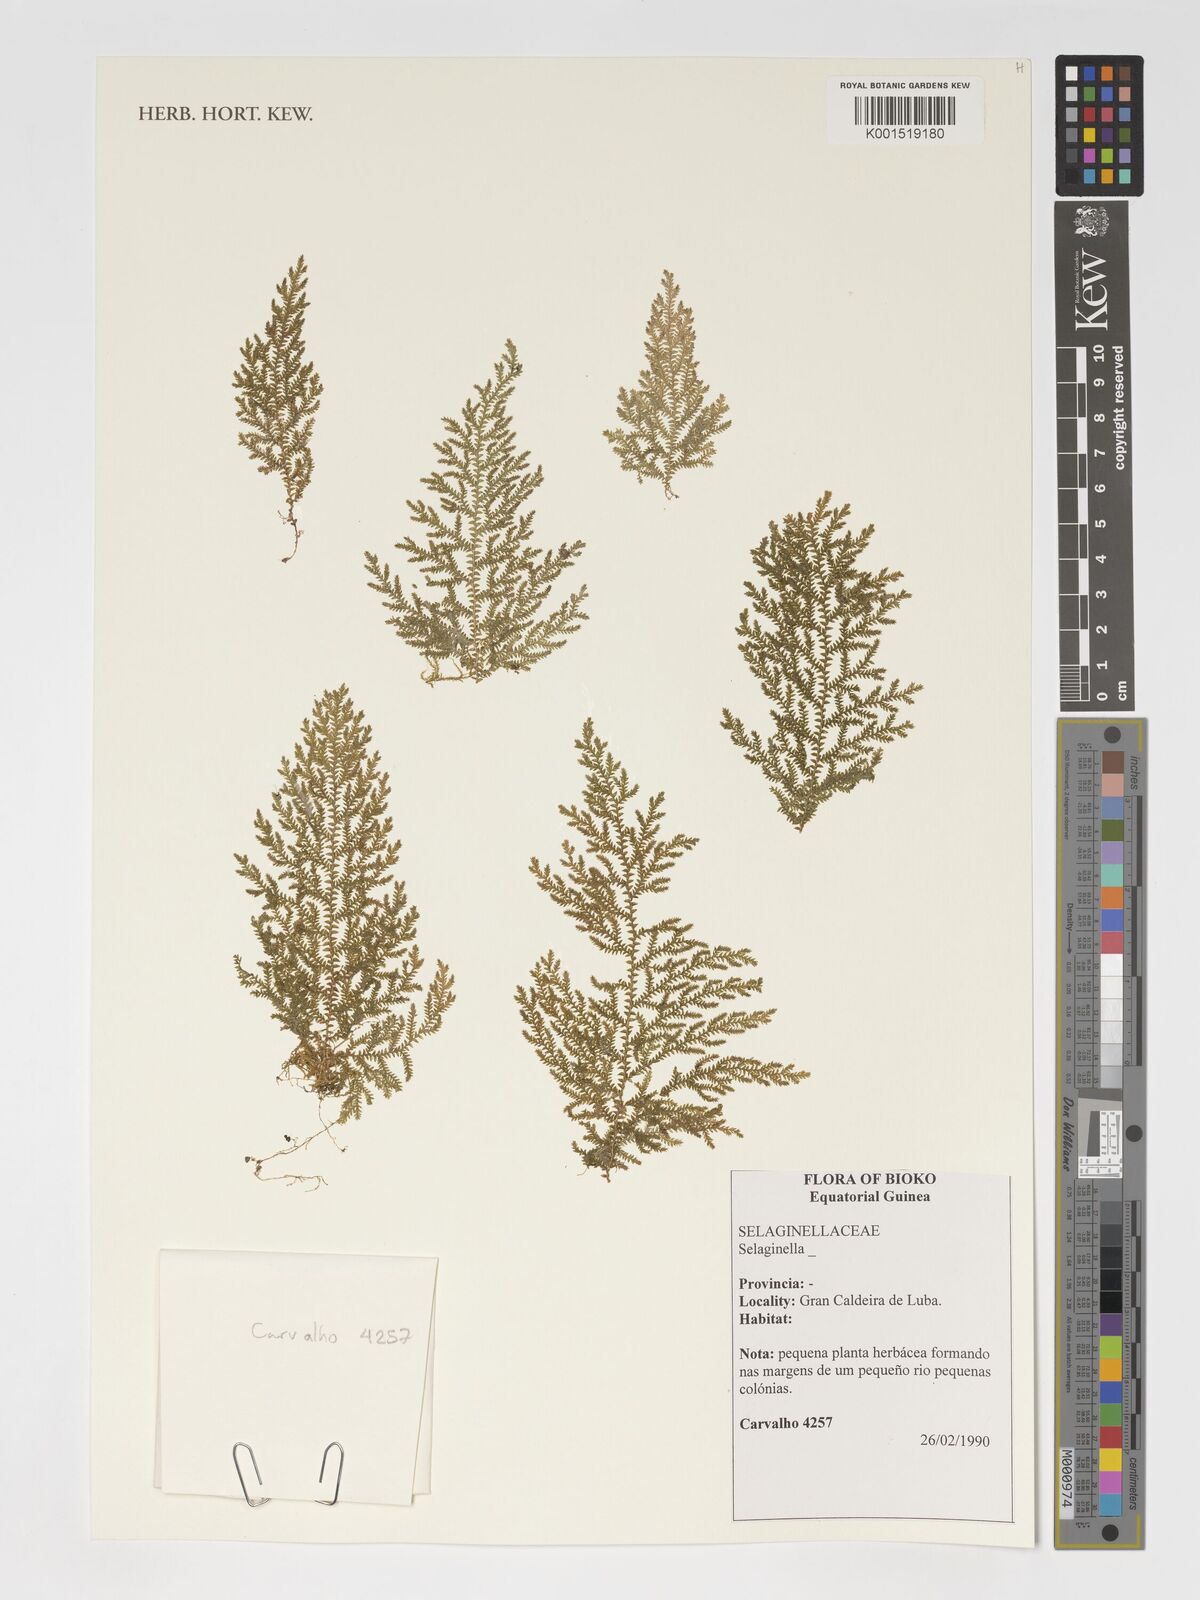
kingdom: Plantae
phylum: Tracheophyta
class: Lycopodiopsida
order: Selaginellales
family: Selaginellaceae
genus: Selaginella
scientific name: Selaginella
